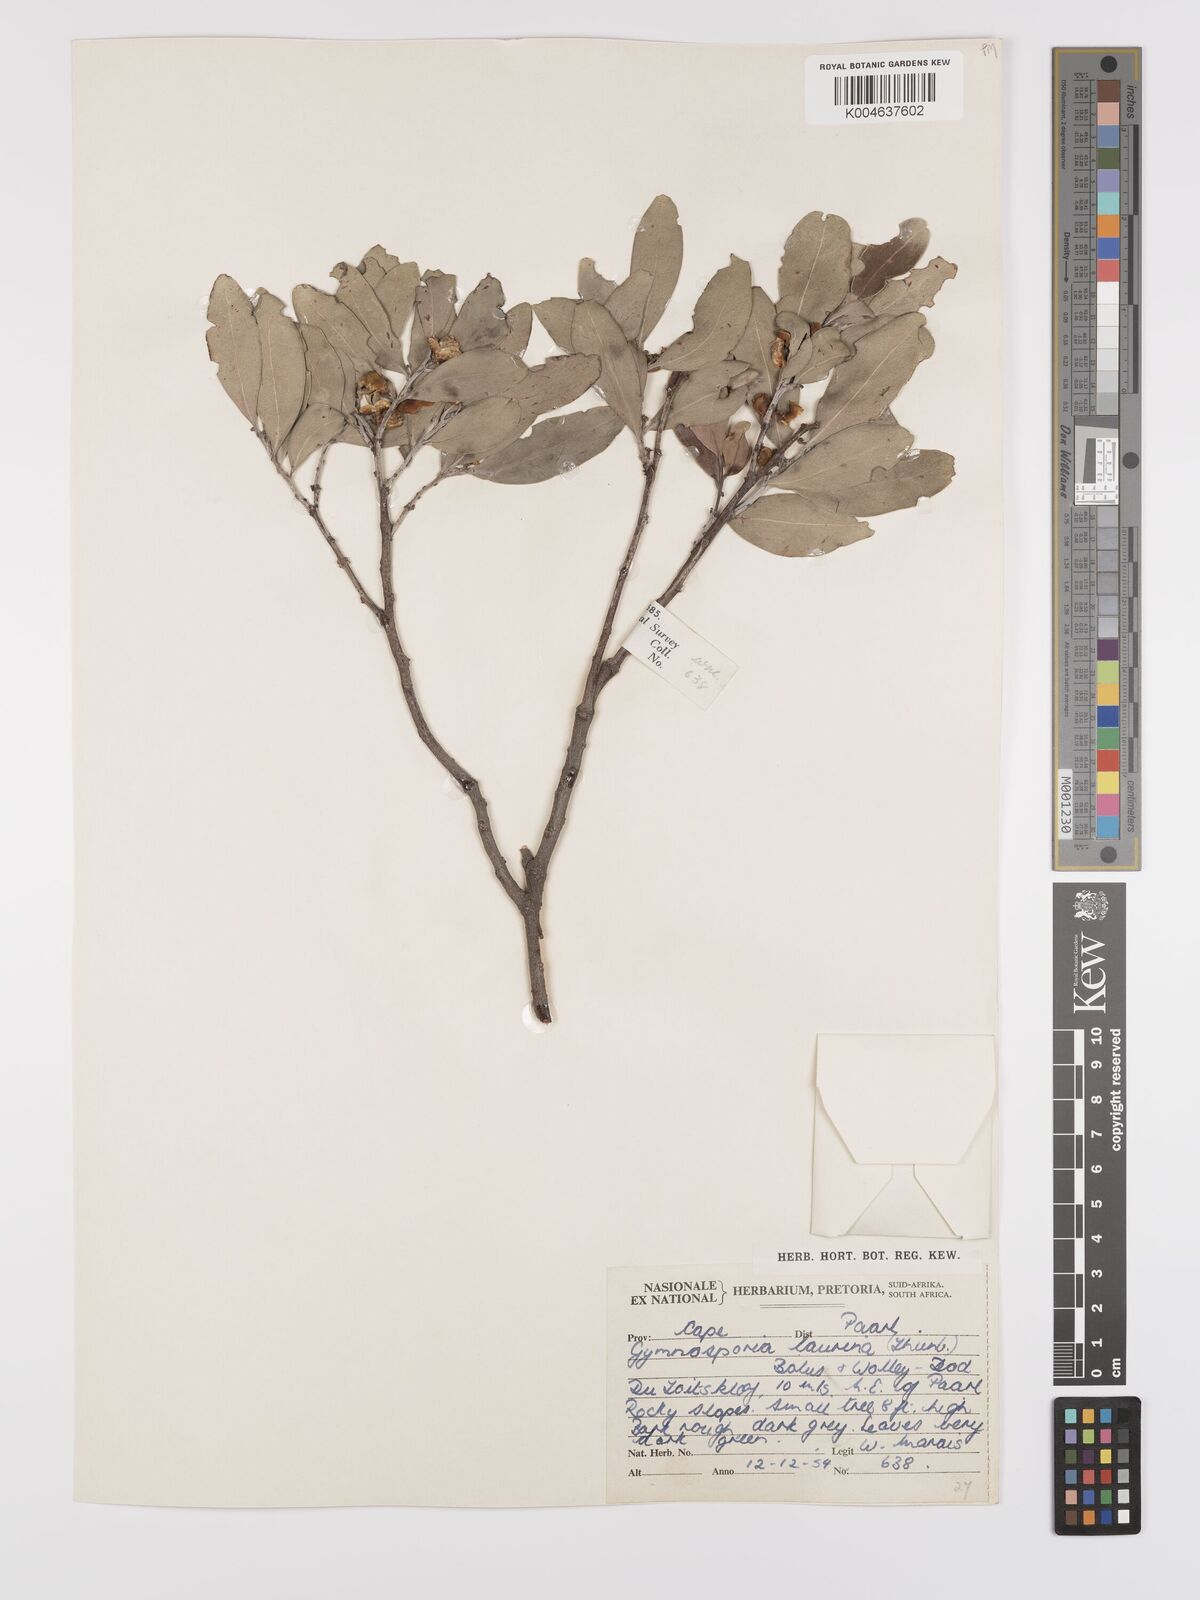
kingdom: Plantae
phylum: Tracheophyta
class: Magnoliopsida
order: Celastrales
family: Celastraceae
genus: Monteverdia
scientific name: Monteverdia laurina
